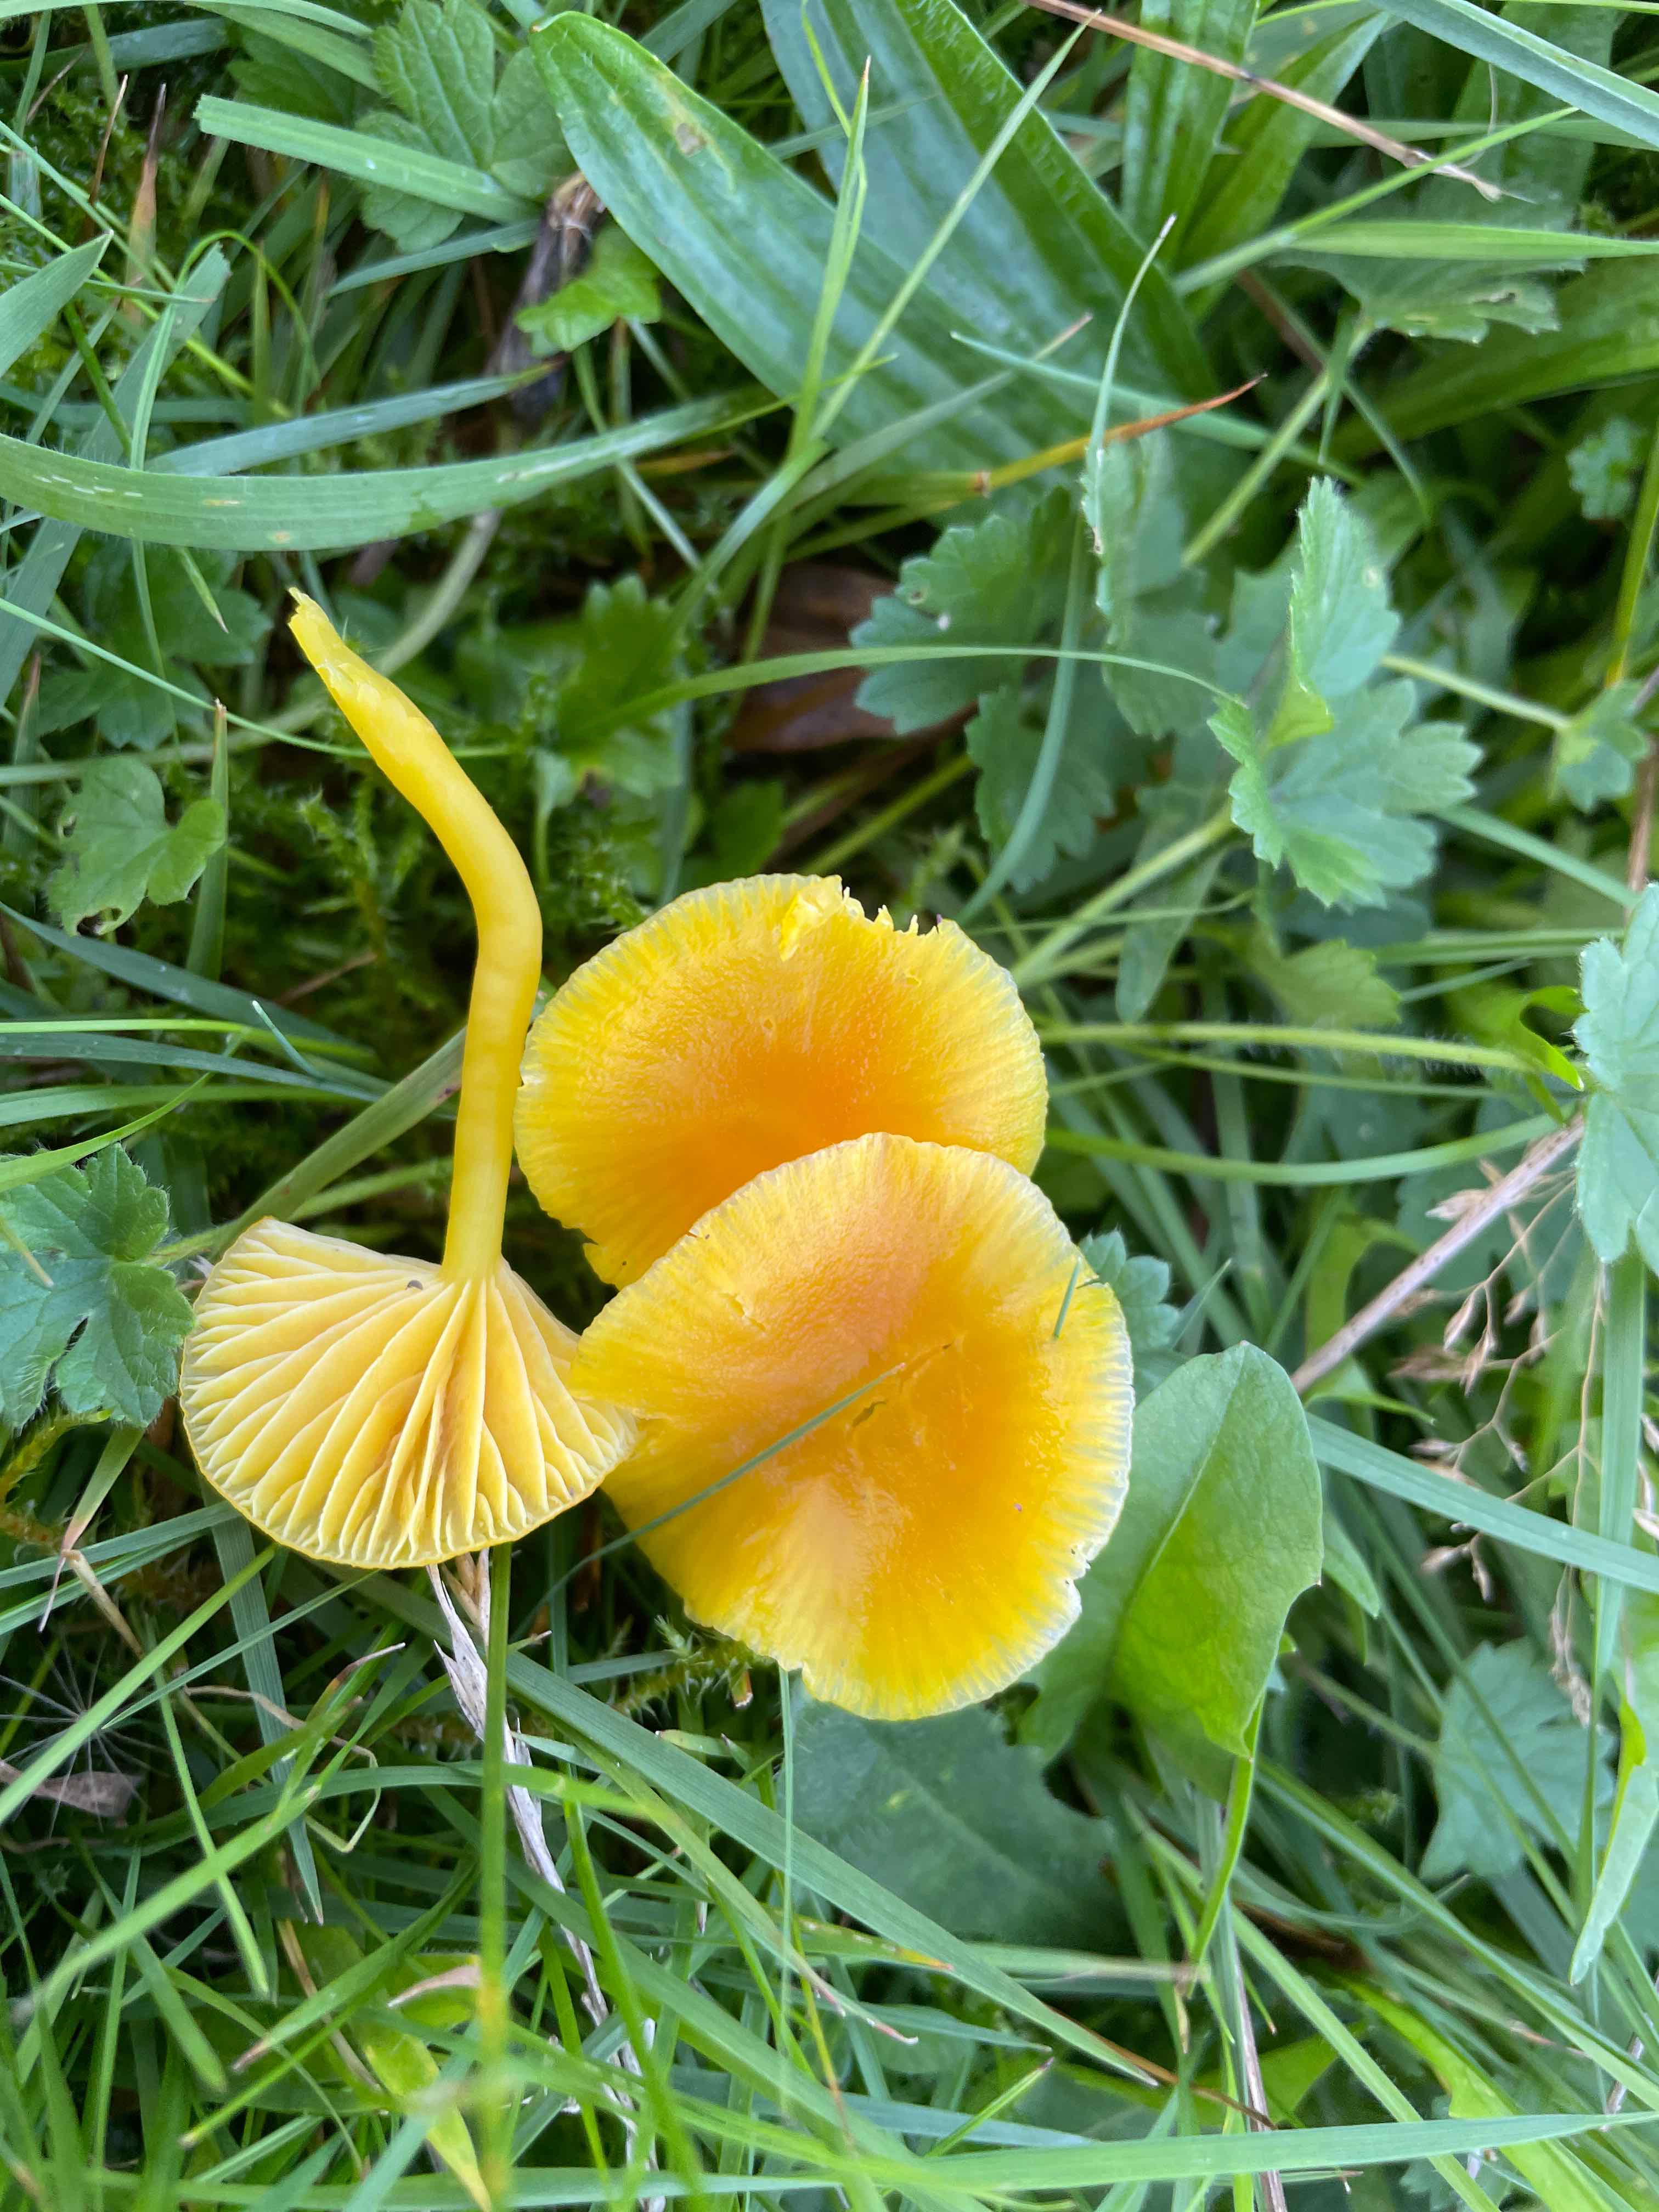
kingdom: Fungi
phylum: Basidiomycota
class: Agaricomycetes
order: Agaricales
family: Hygrophoraceae
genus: Hygrocybe
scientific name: Hygrocybe ceracea
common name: voksgul vokshat
